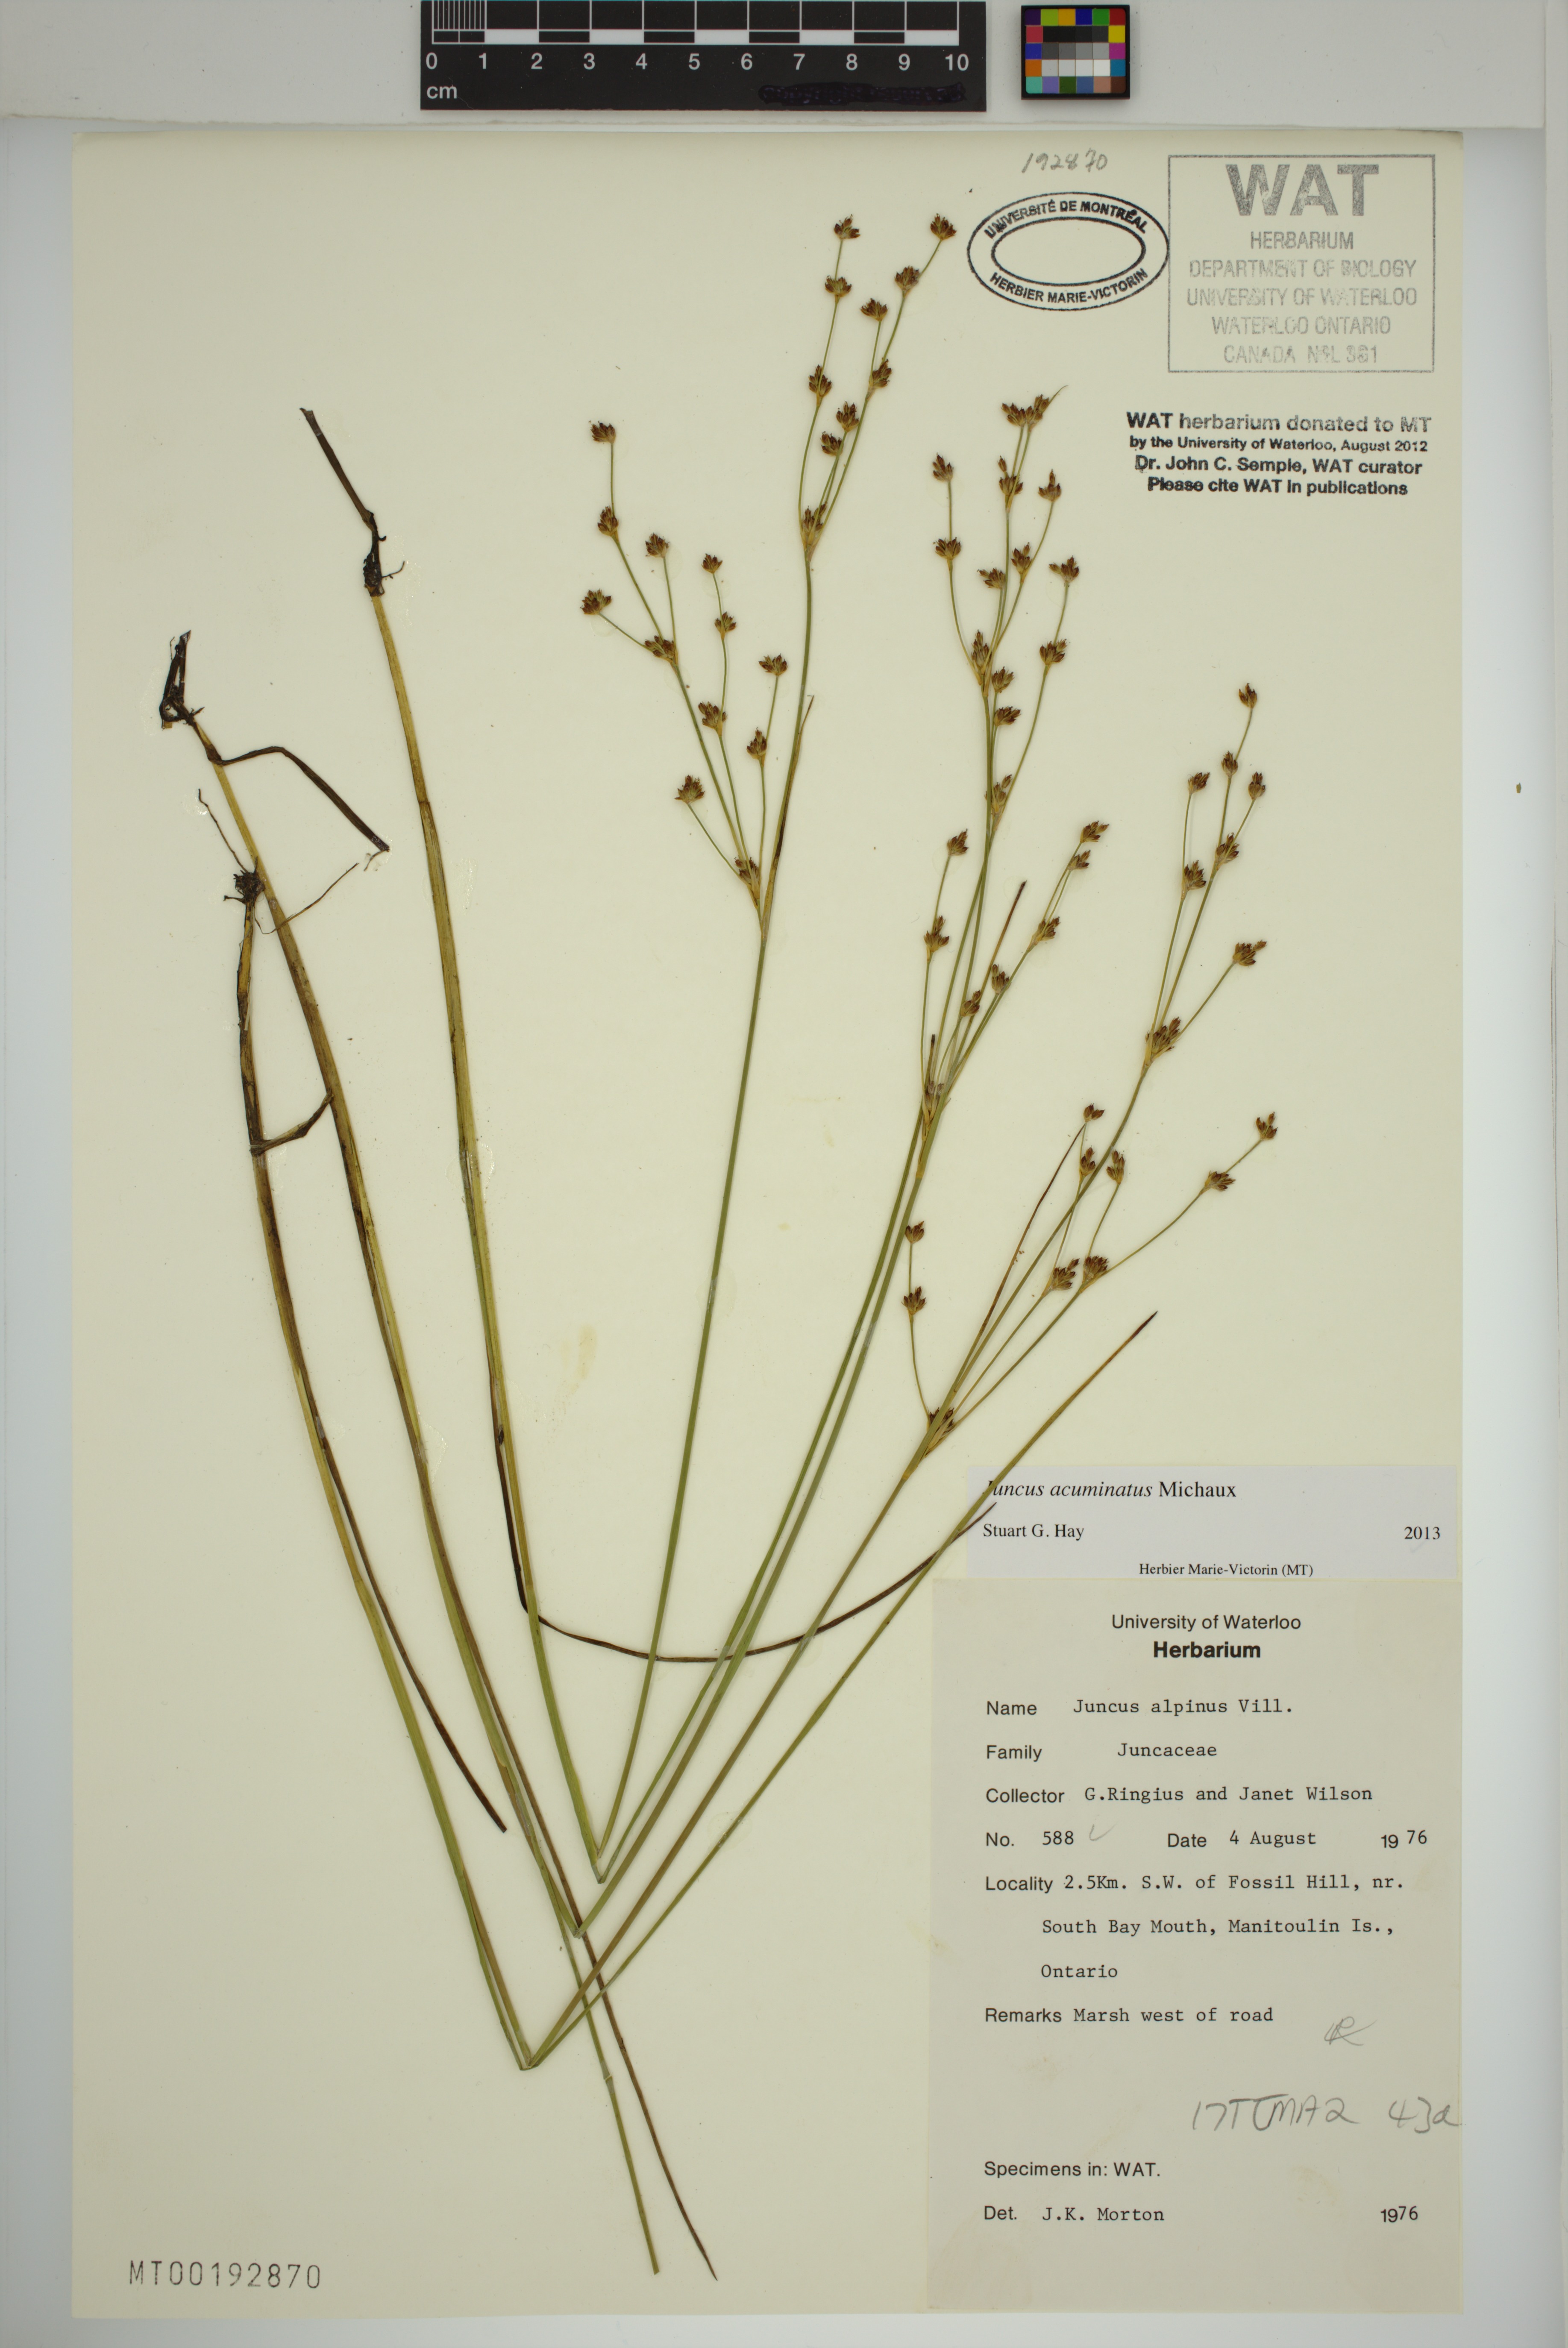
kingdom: Plantae
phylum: Tracheophyta
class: Liliopsida
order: Poales
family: Juncaceae
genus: Juncus
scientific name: Juncus alpinoarticulatus
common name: Alpine rush
